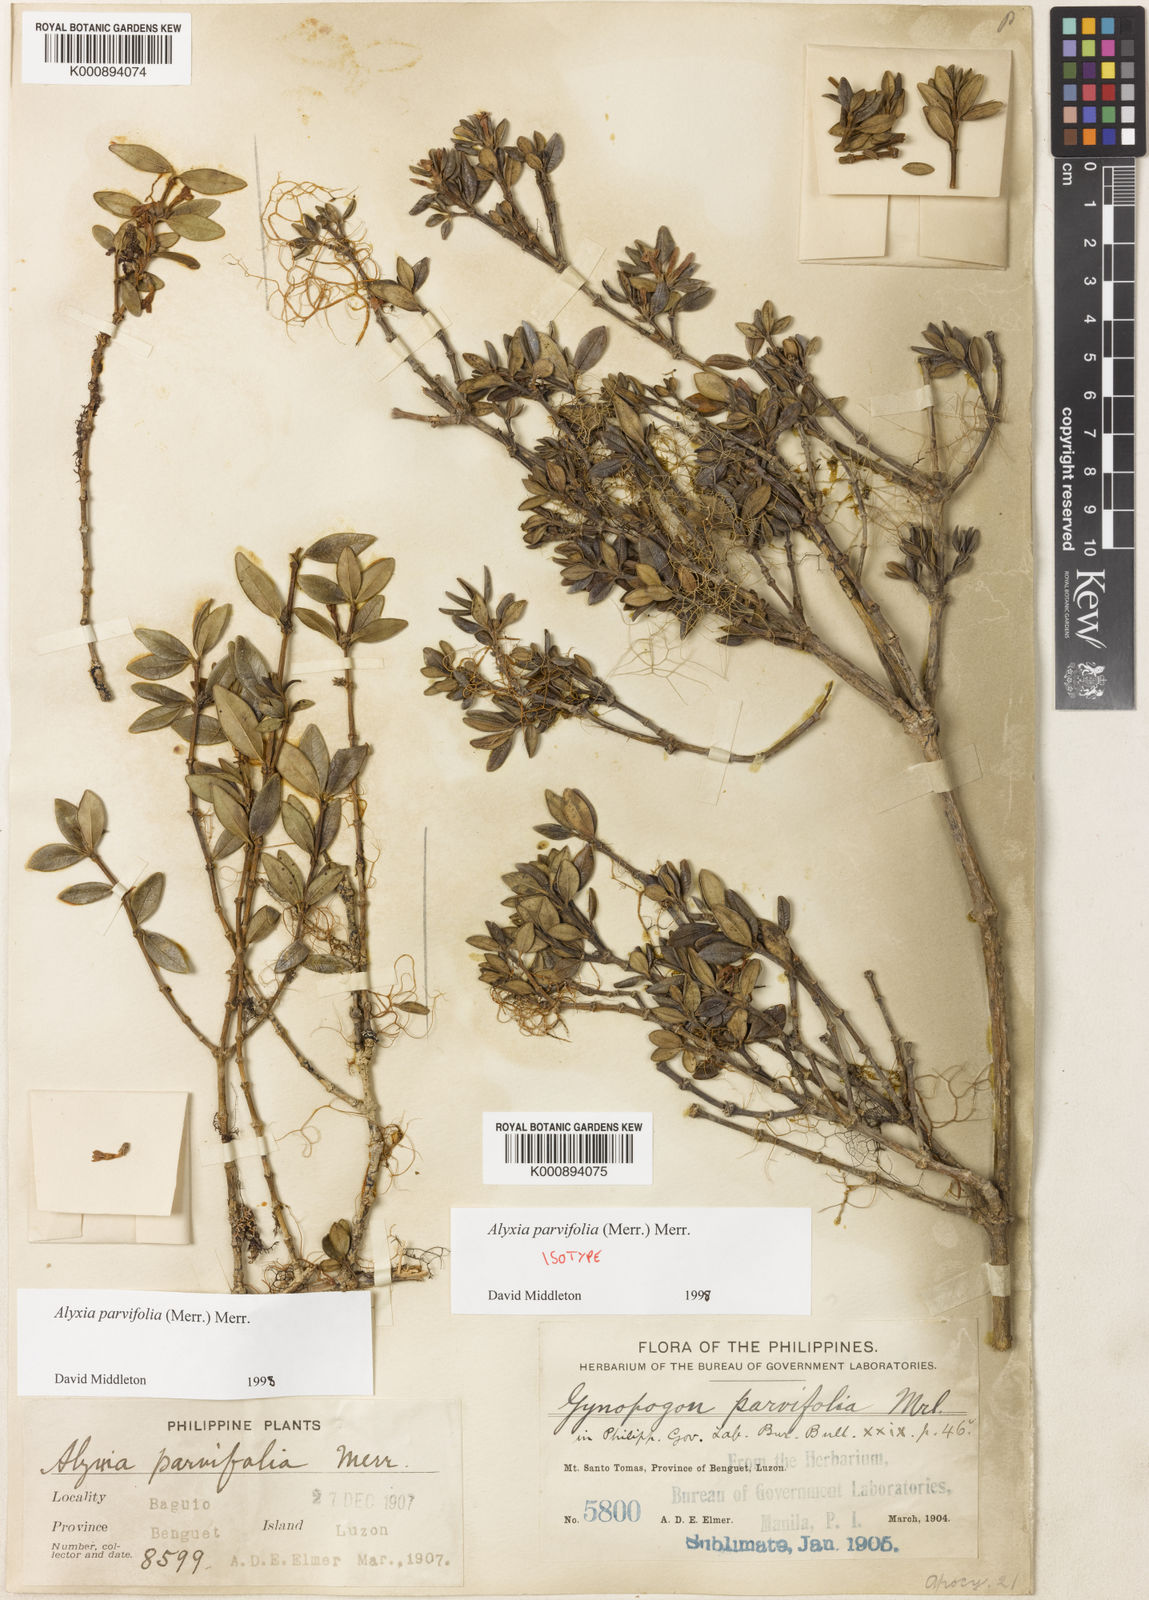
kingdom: Plantae
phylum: Tracheophyta
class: Magnoliopsida
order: Gentianales
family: Apocynaceae
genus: Alyxia
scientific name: Alyxia parvifolia
